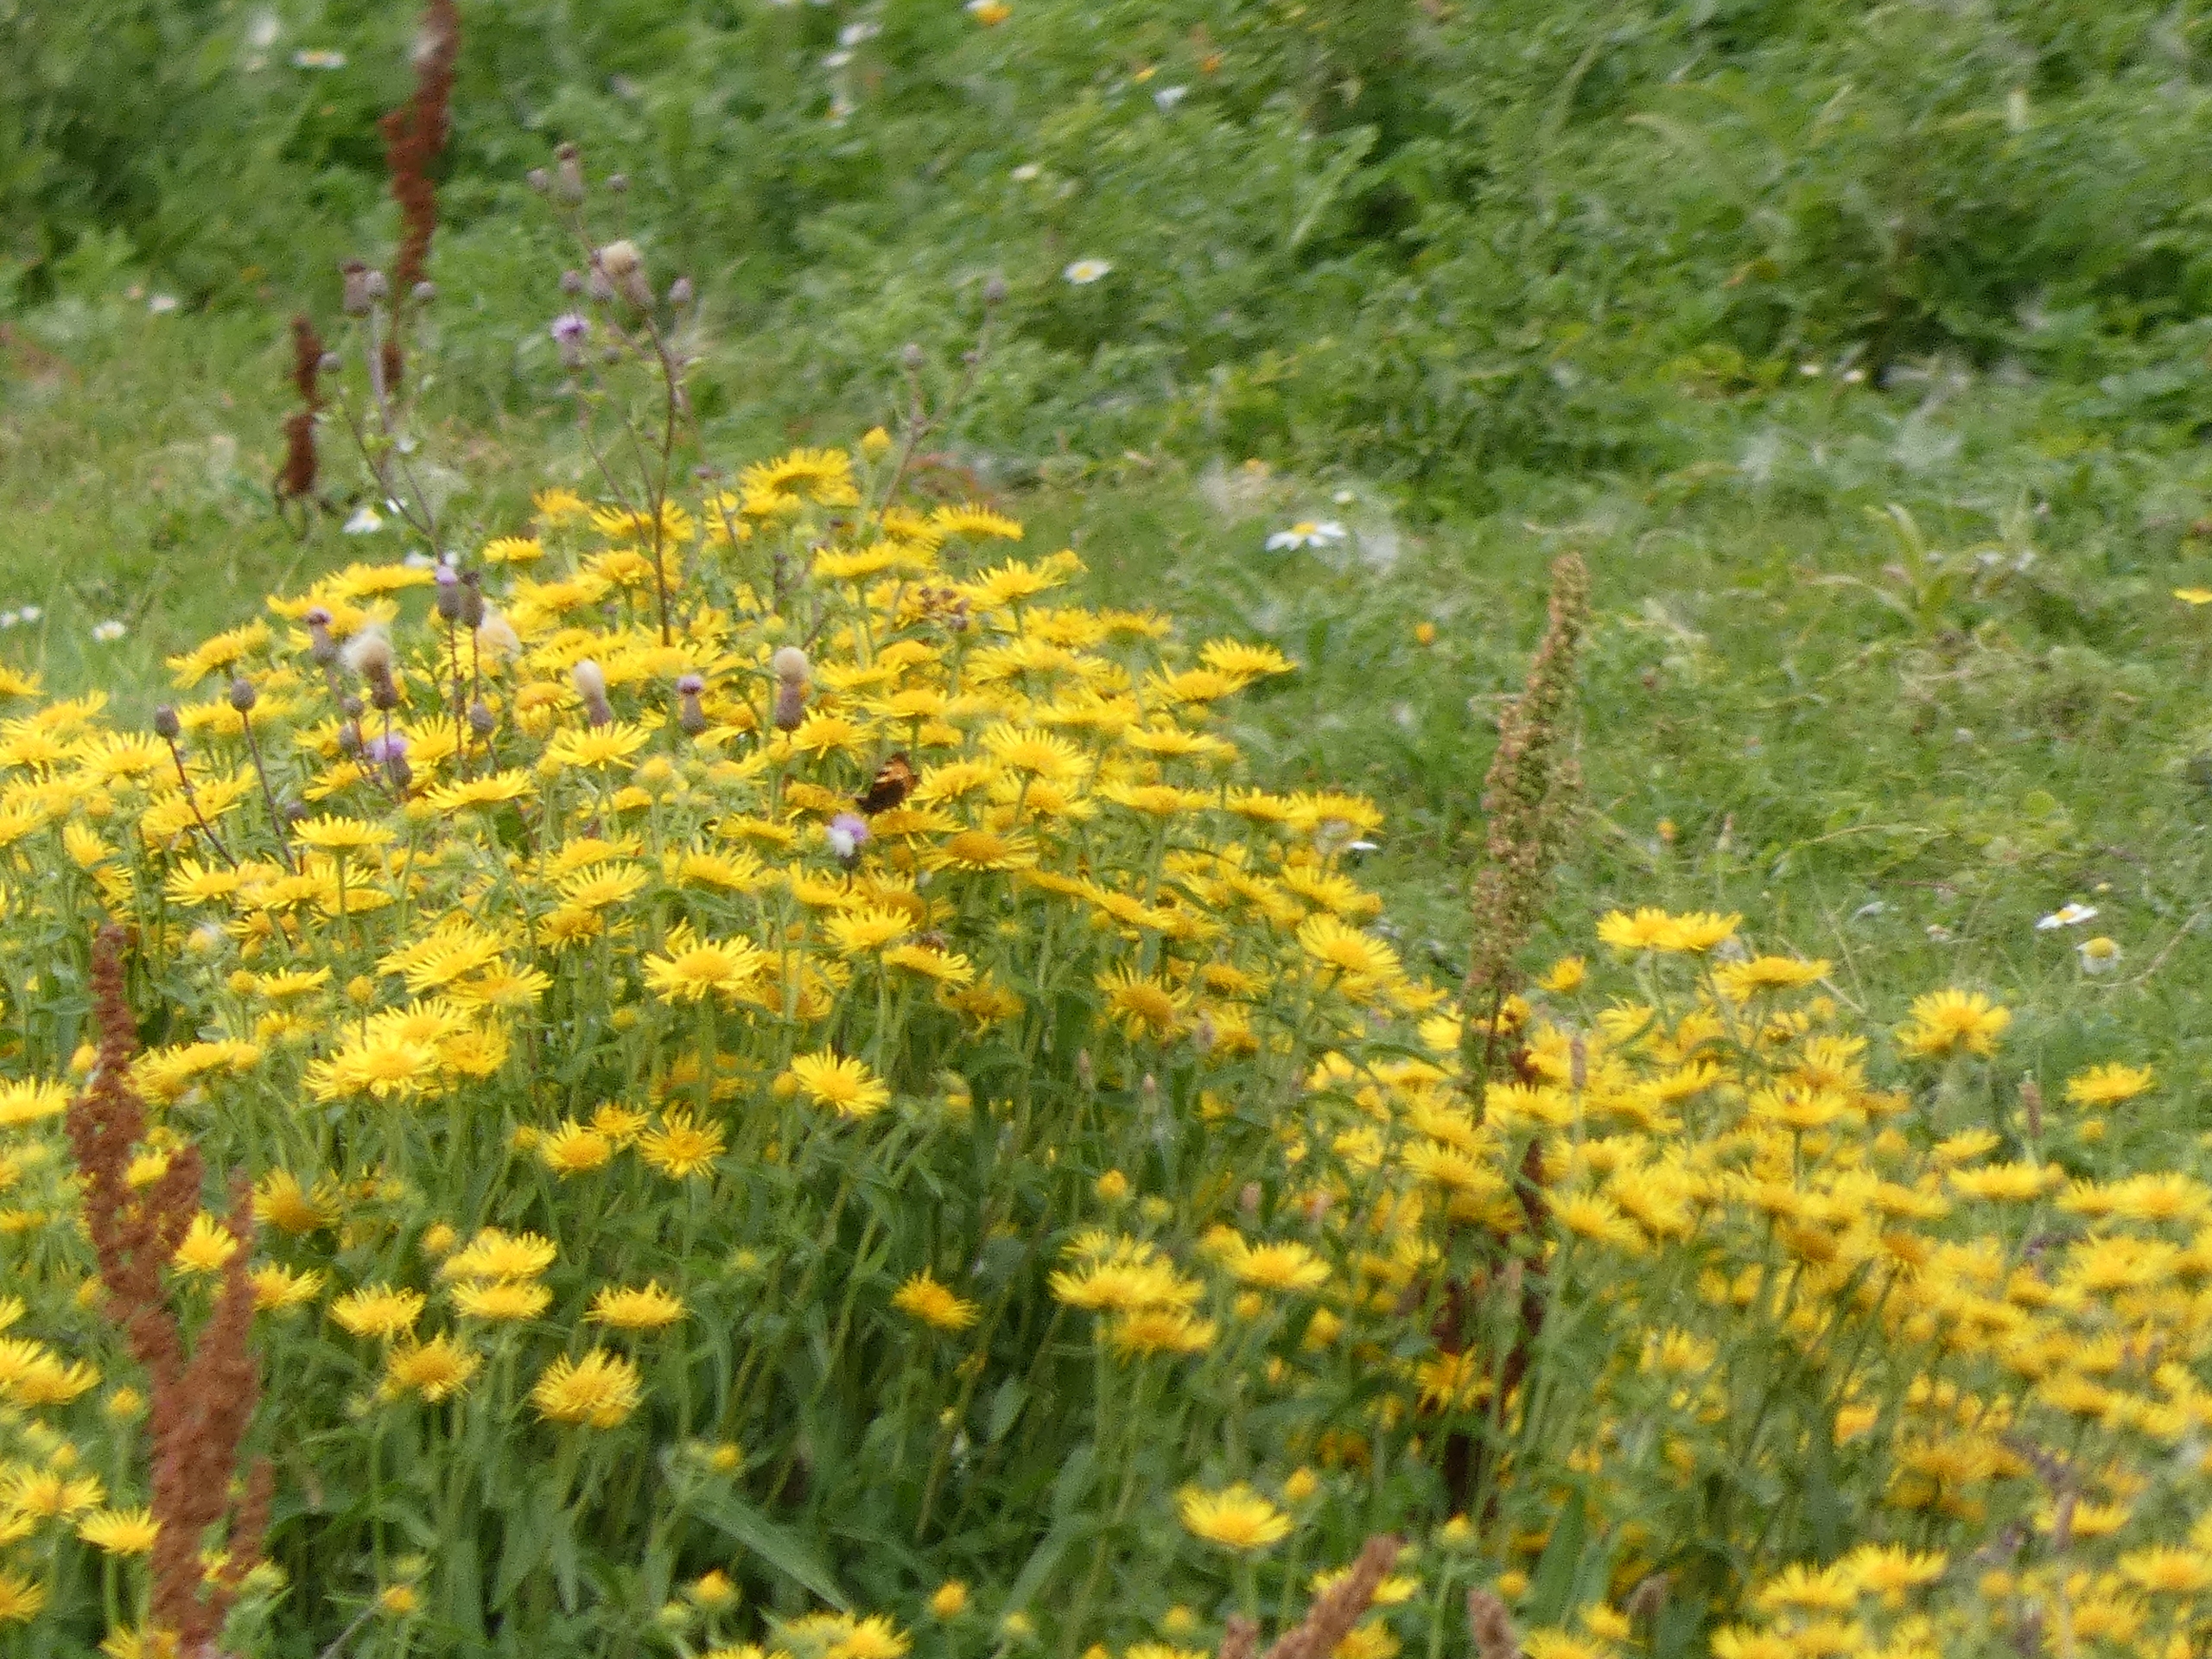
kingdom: Animalia
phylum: Arthropoda
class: Insecta
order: Lepidoptera
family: Nymphalidae
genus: Aglais
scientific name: Aglais urticae
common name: Nældens takvinge
